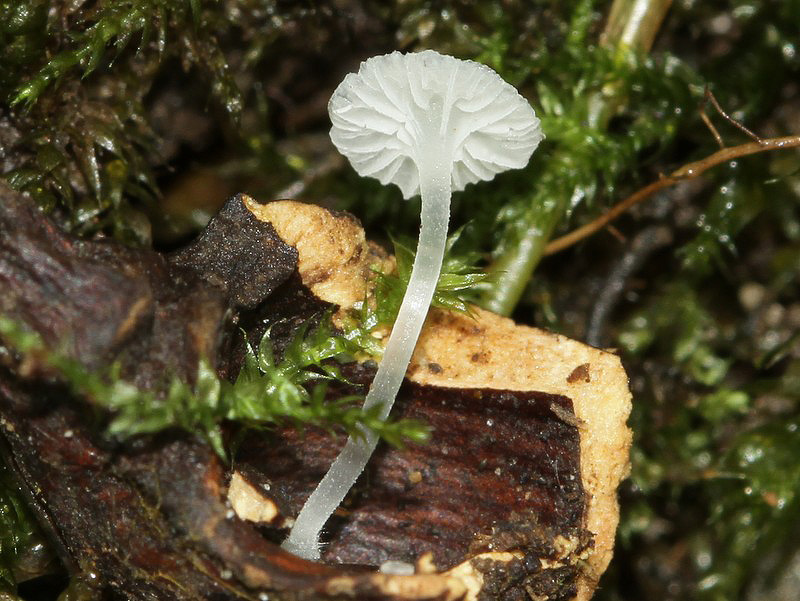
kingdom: Fungi
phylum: Basidiomycota
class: Agaricomycetes
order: Agaricales
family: Mycenaceae
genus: Atheniella
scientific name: Atheniella delectabilis
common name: nitrøs huesvamp
